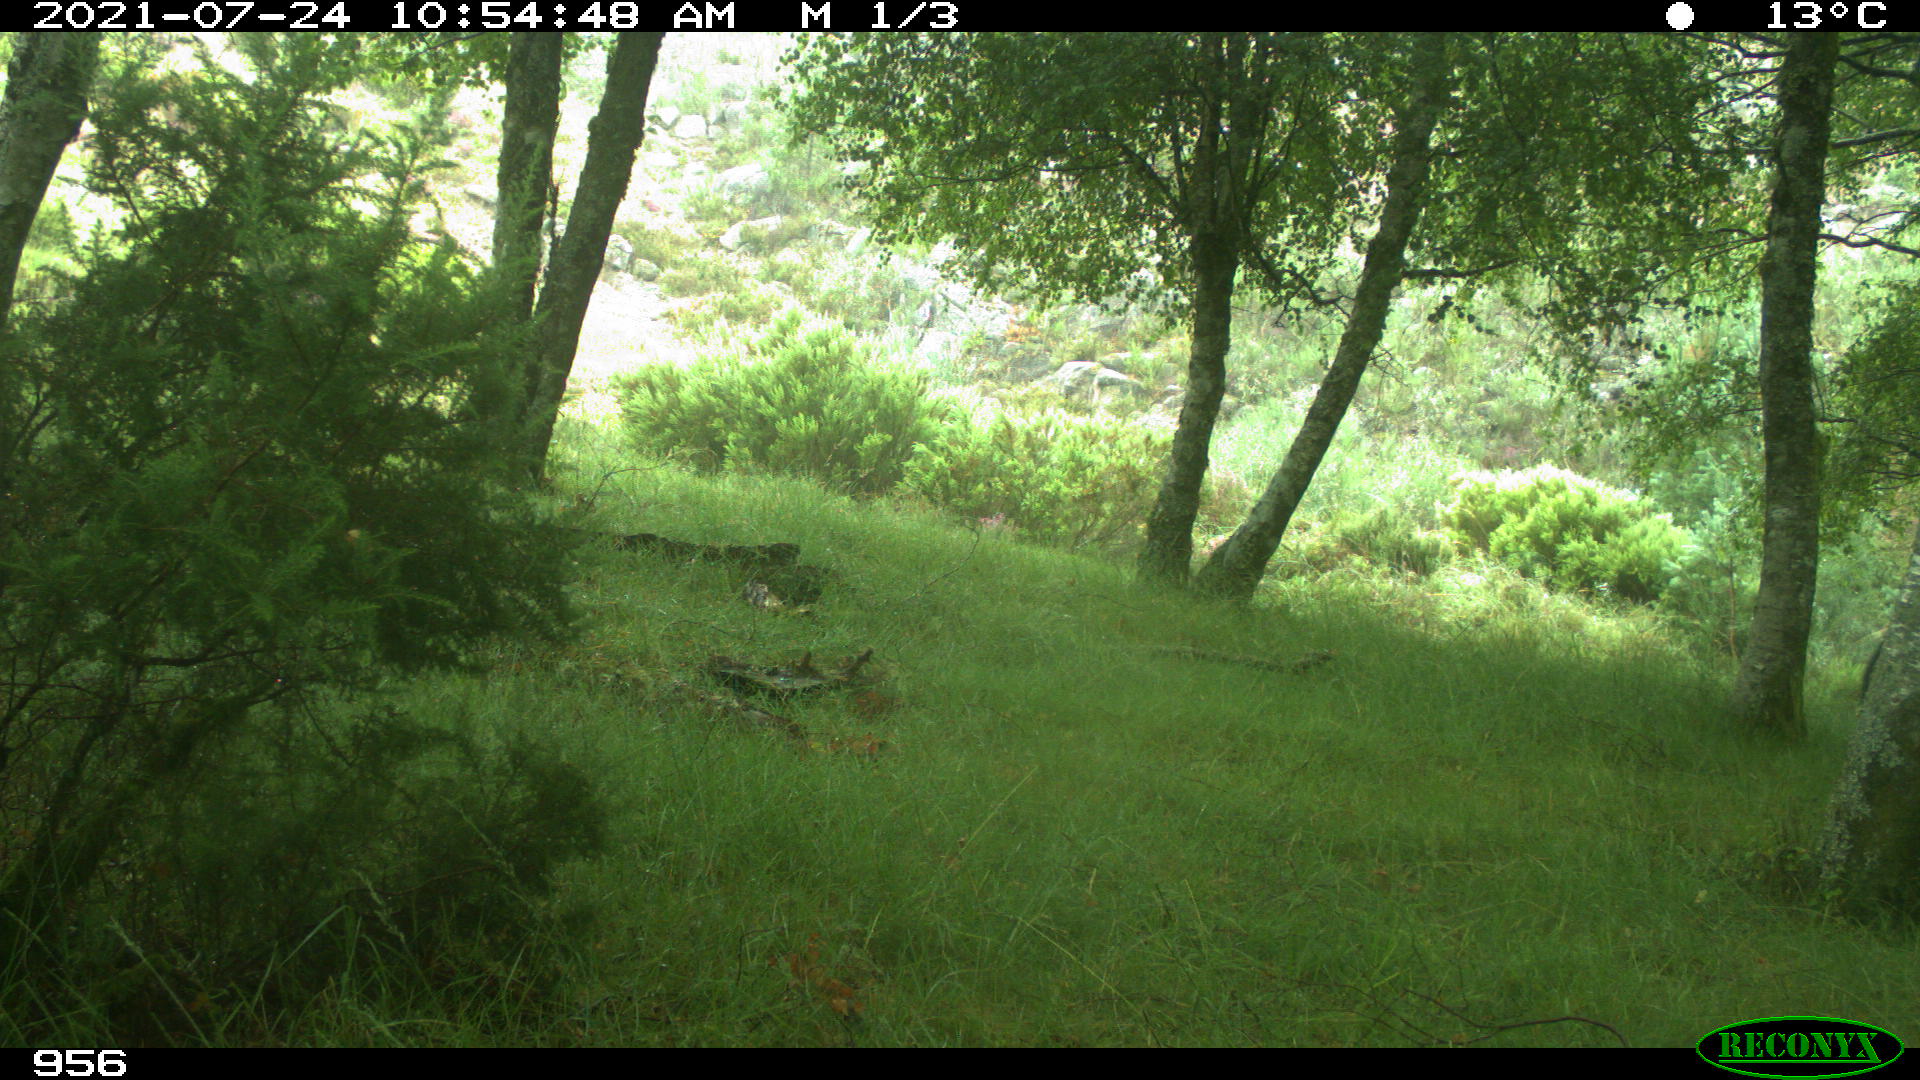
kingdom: Animalia
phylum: Chordata
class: Mammalia
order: Artiodactyla
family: Suidae
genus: Sus
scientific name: Sus scrofa
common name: Wild boar
